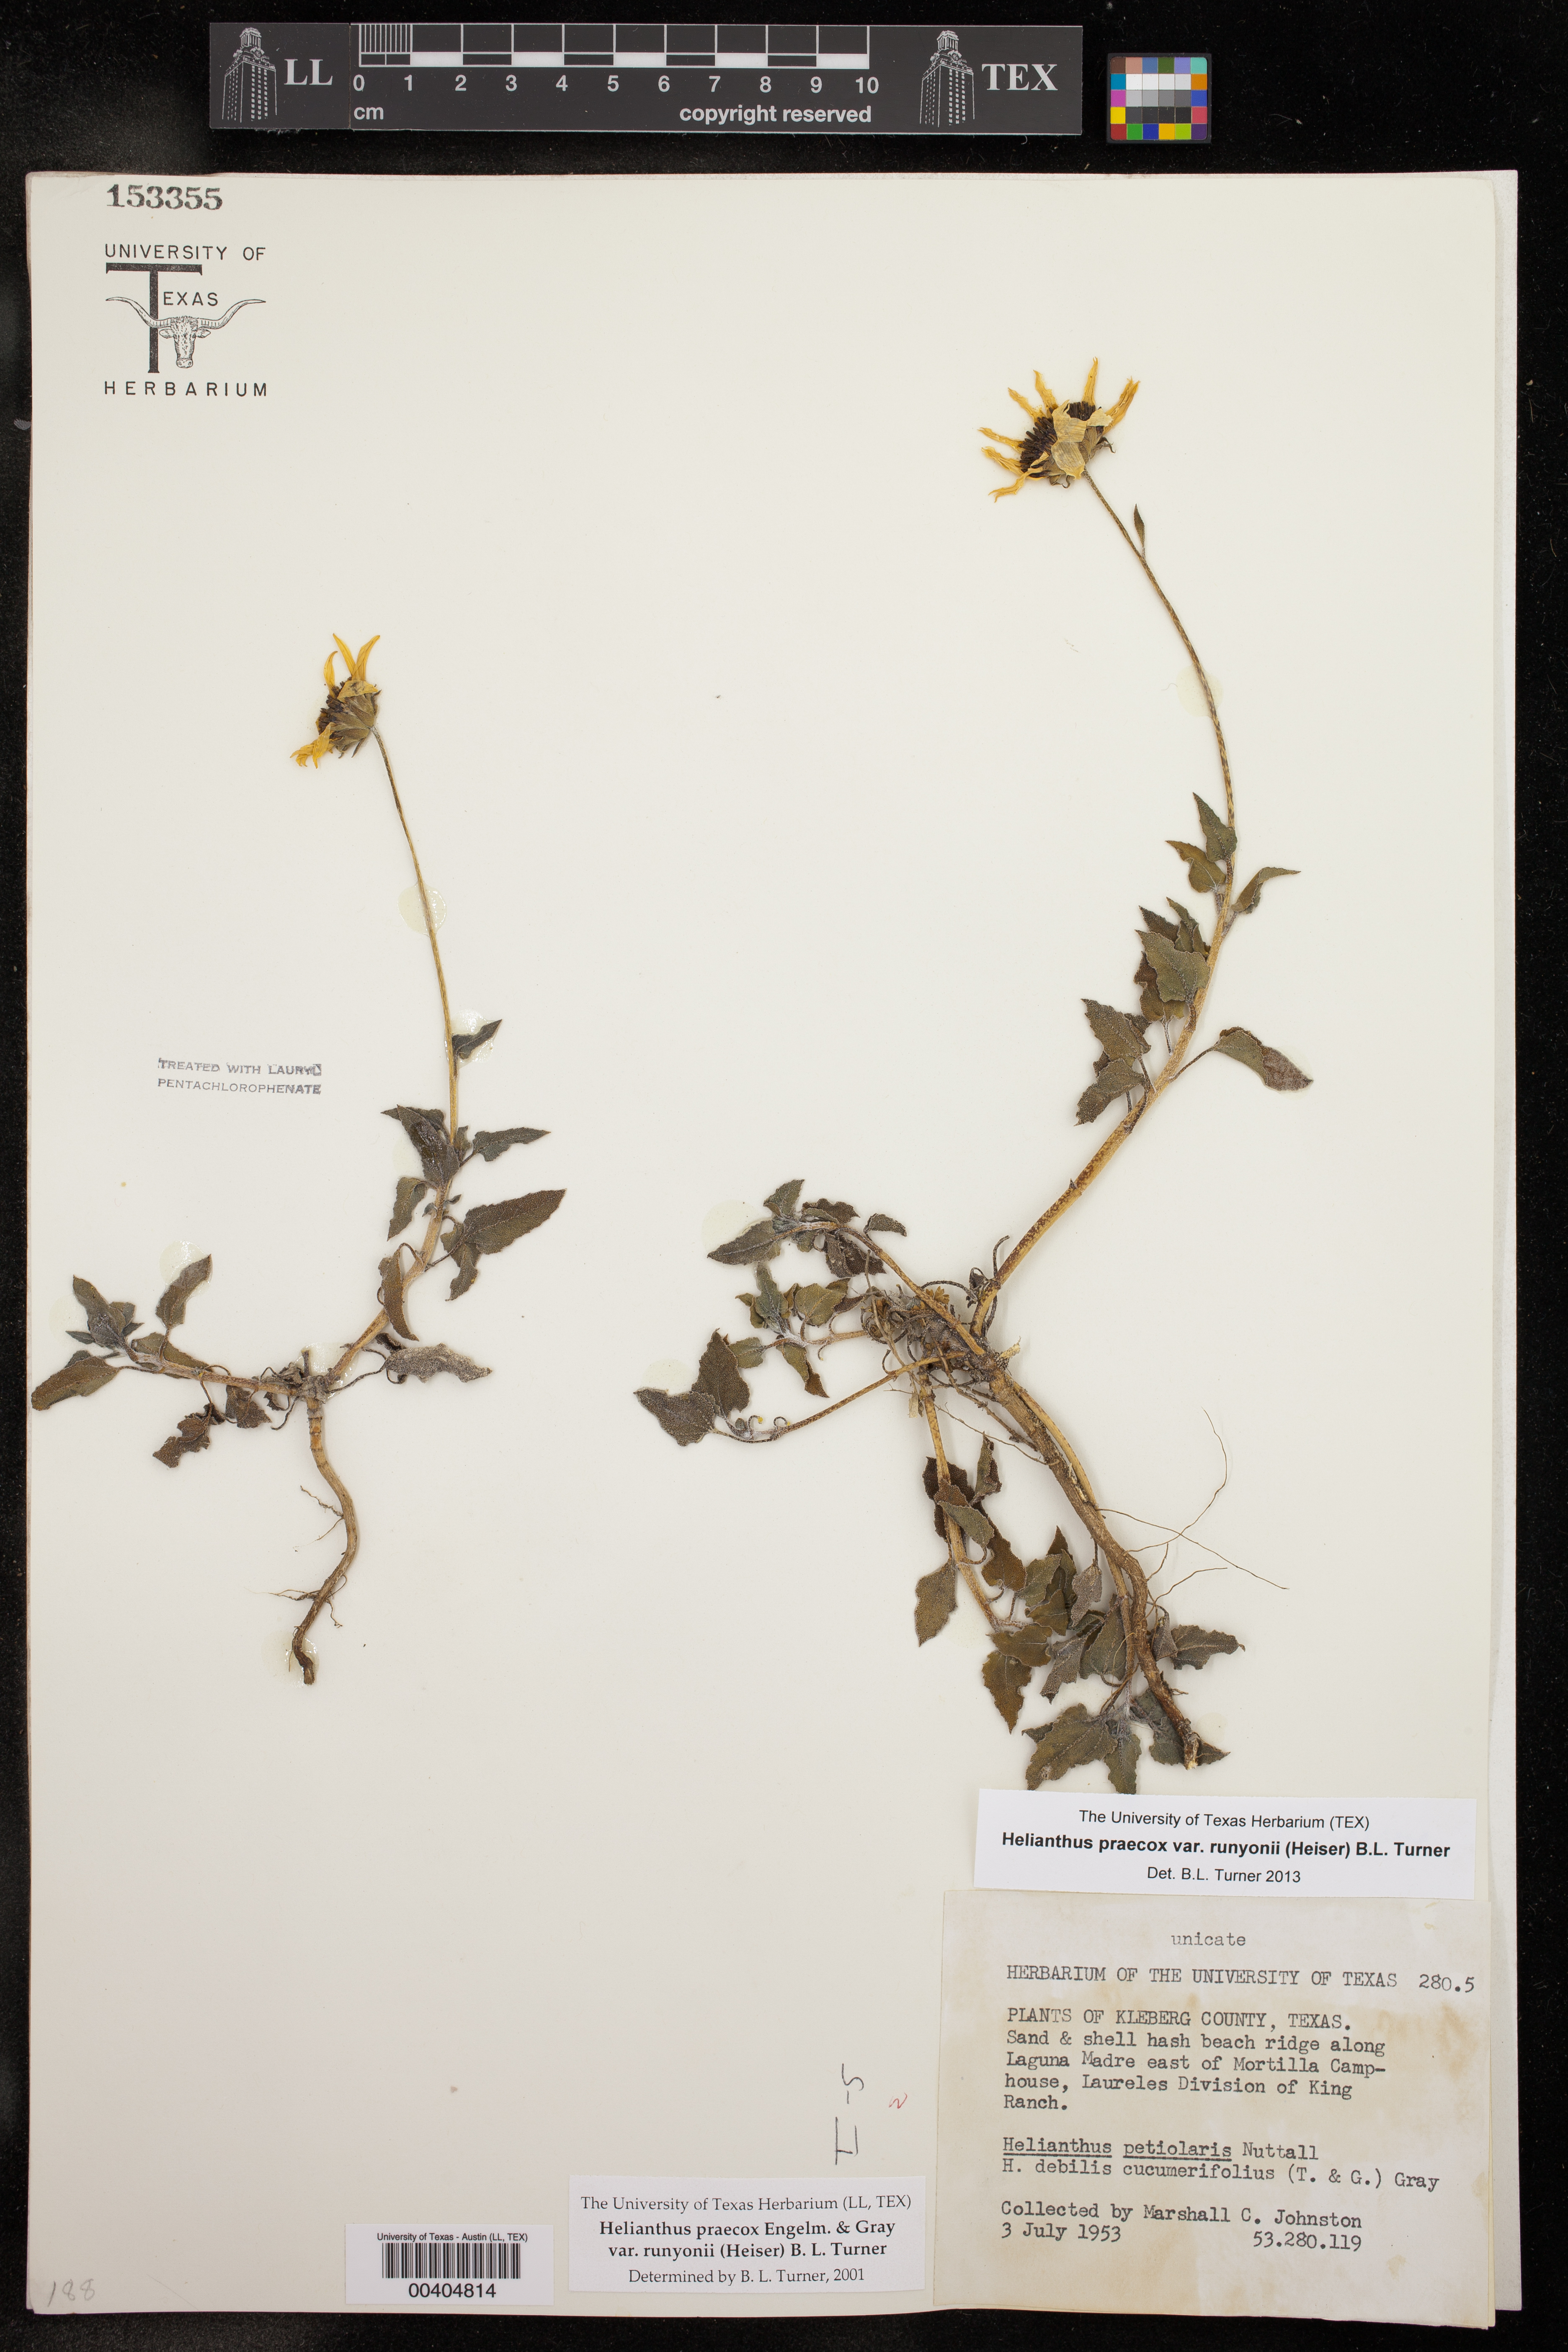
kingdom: Plantae
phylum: Tracheophyta
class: Magnoliopsida
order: Asterales
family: Asteraceae
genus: Helianthus
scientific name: Helianthus praecox
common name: Texas sunflower
